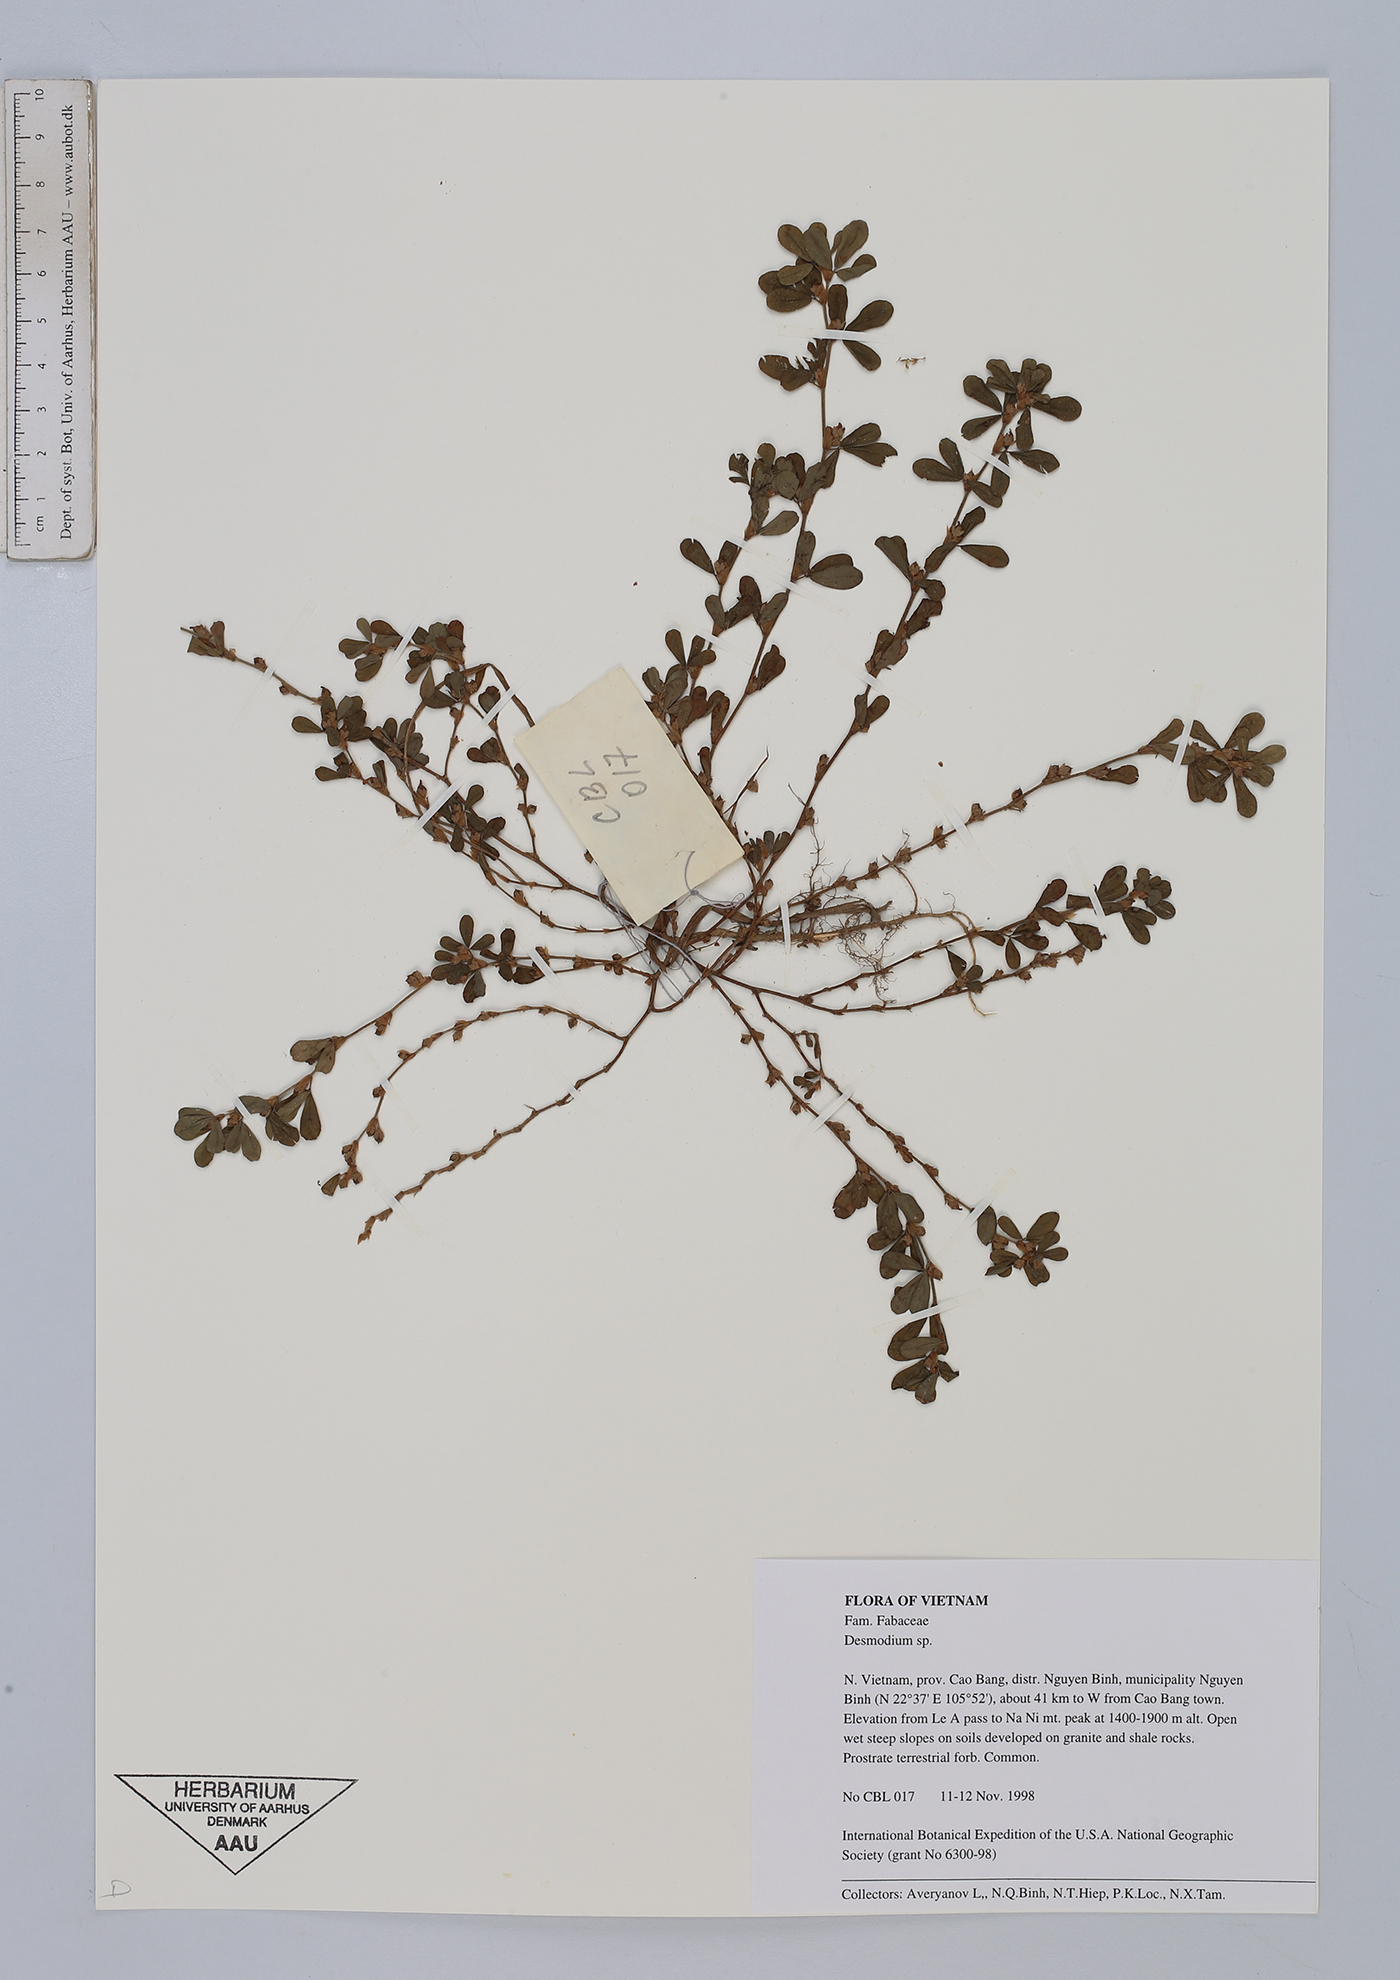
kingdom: Plantae
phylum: Tracheophyta
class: Magnoliopsida
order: Fabales
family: Fabaceae
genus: Desmodium
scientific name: Desmodium
